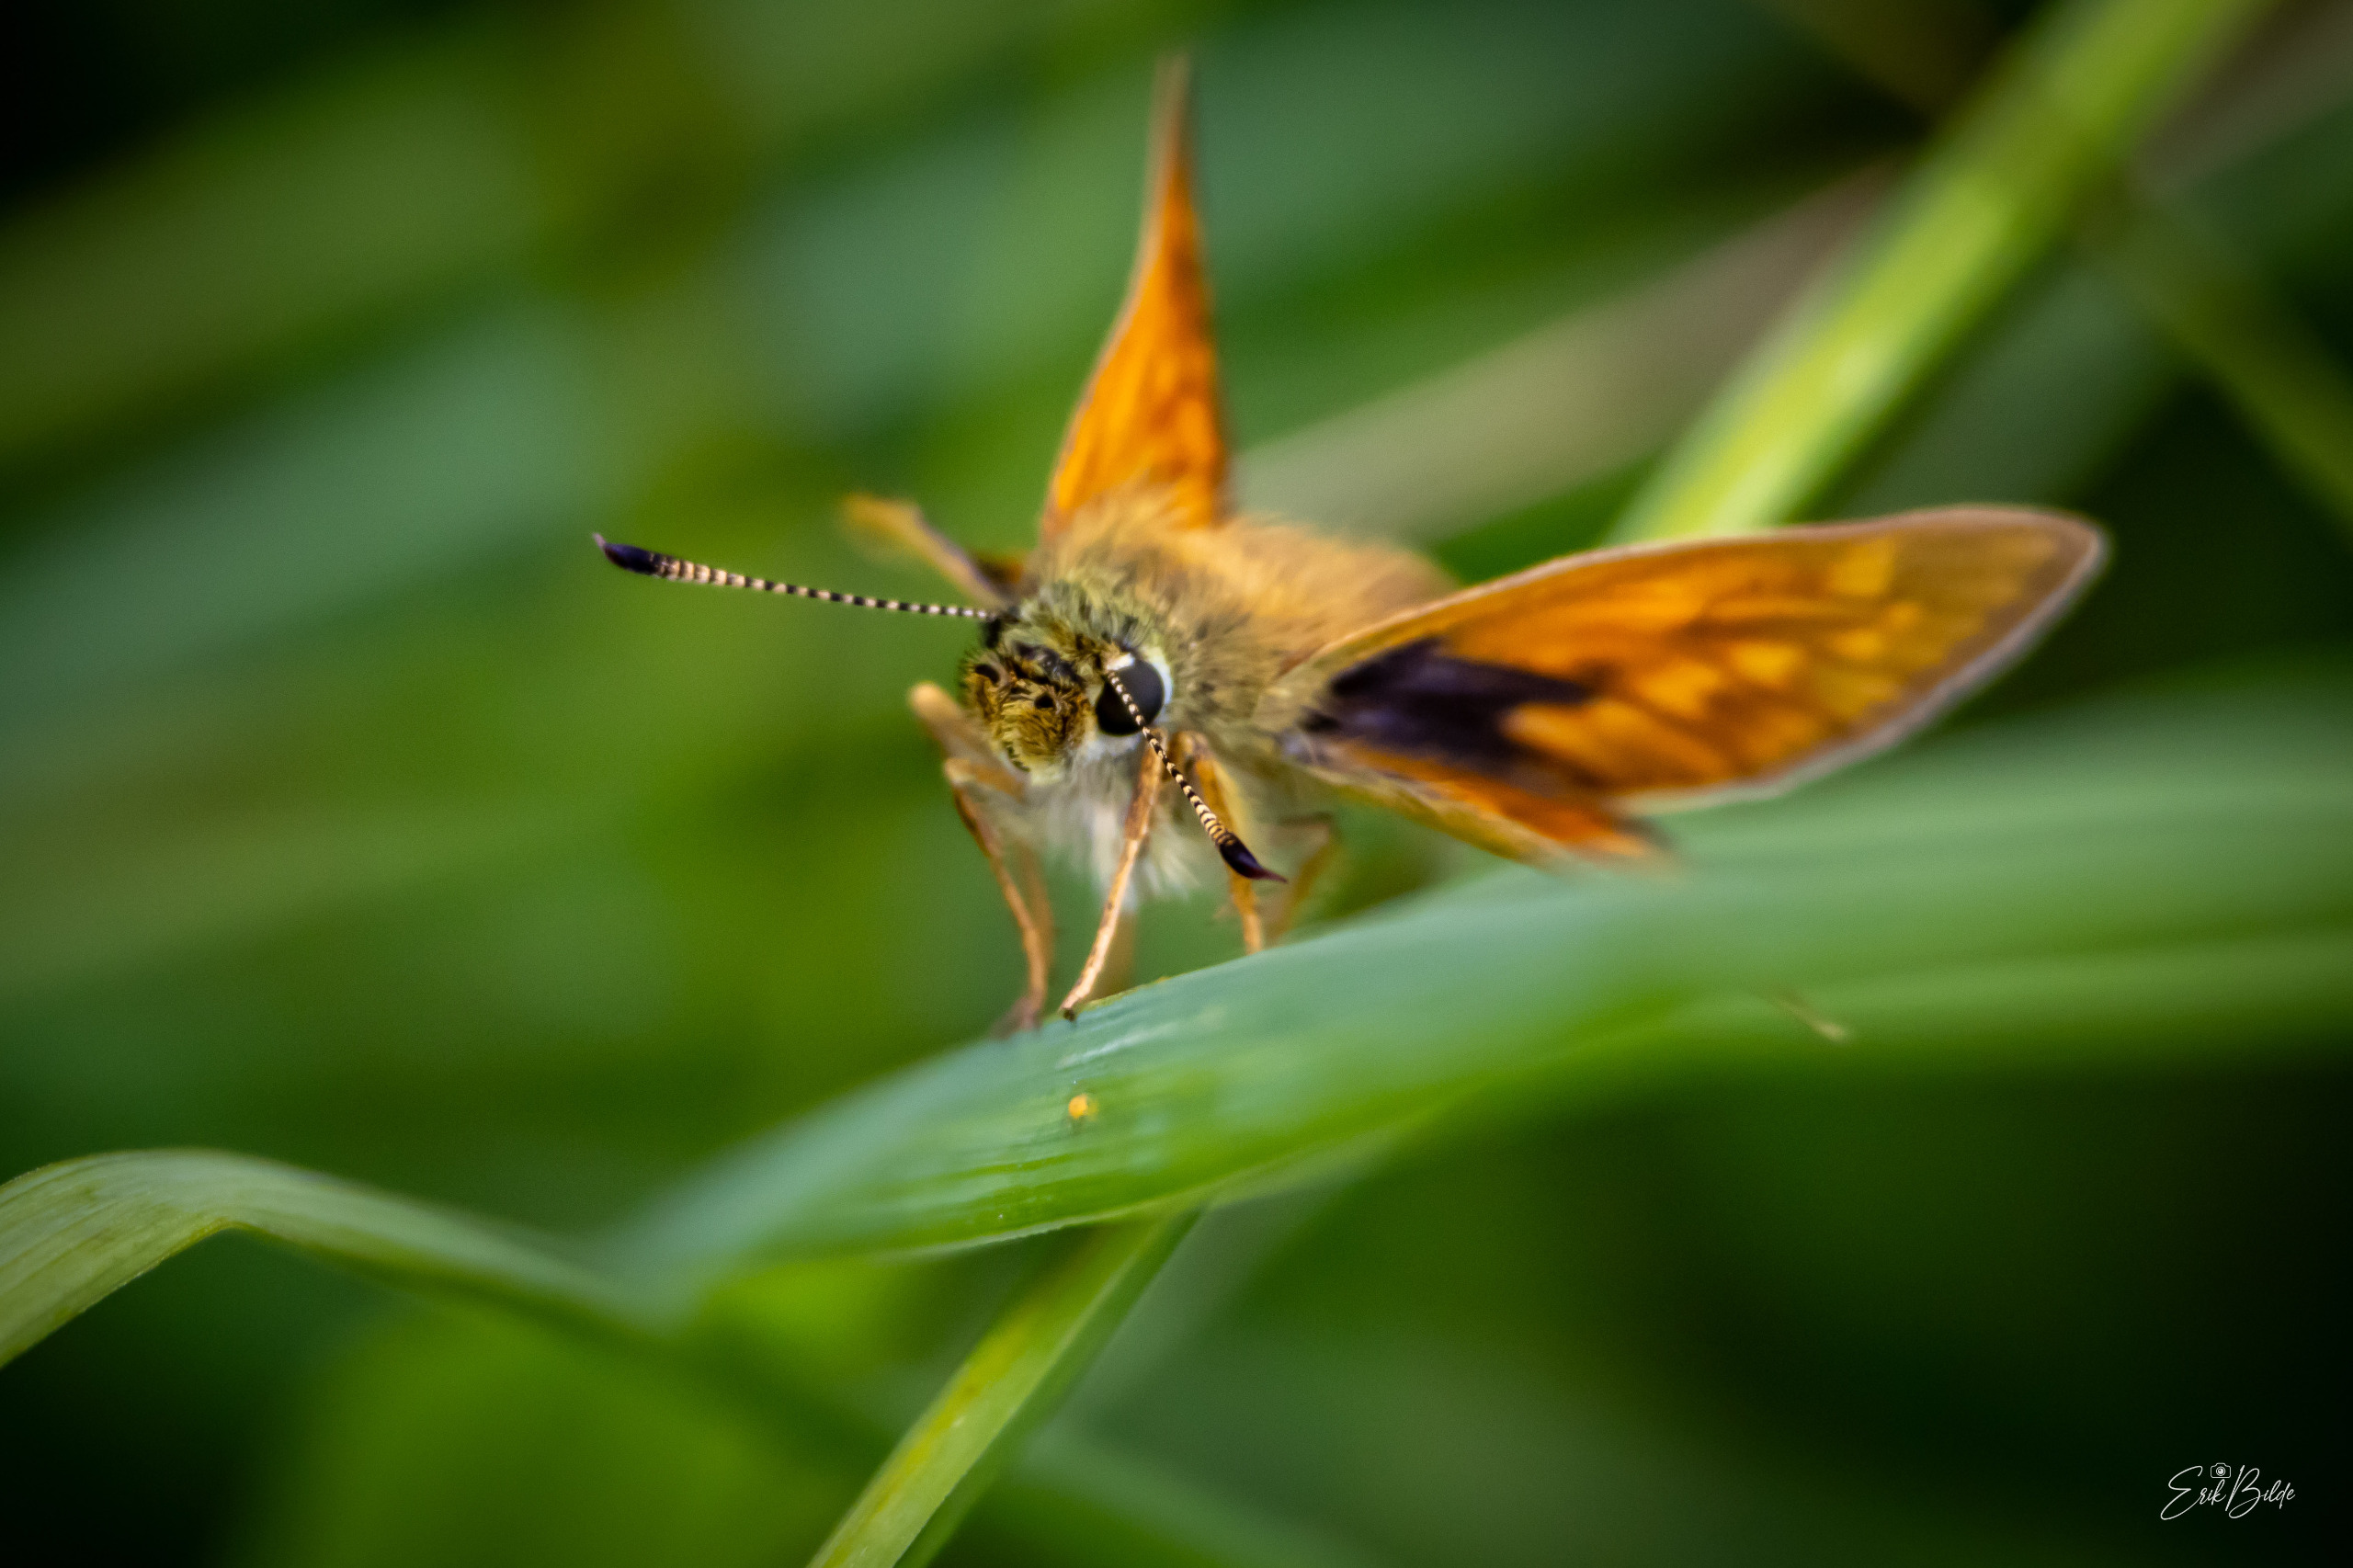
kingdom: Animalia
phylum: Arthropoda
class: Insecta
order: Lepidoptera
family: Hesperiidae
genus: Ochlodes
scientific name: Ochlodes venata
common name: Stor bredpande
